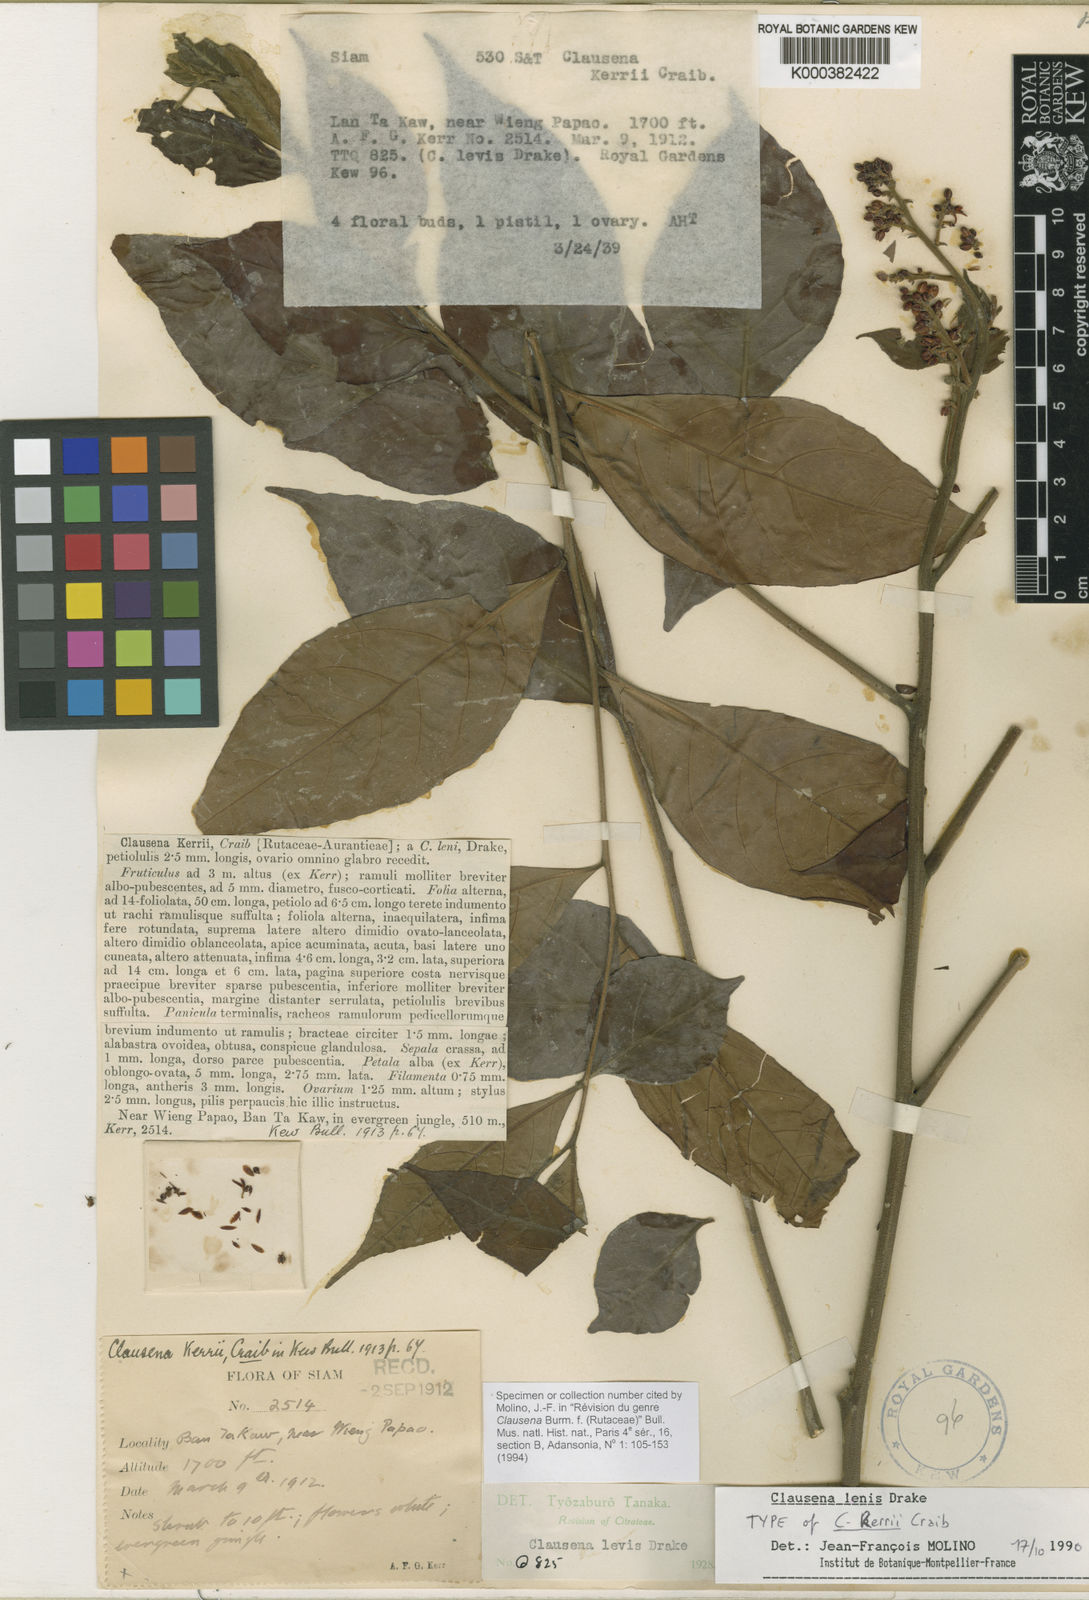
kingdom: Plantae
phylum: Tracheophyta
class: Magnoliopsida
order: Sapindales
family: Rutaceae
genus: Clausena
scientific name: Clausena lenis
